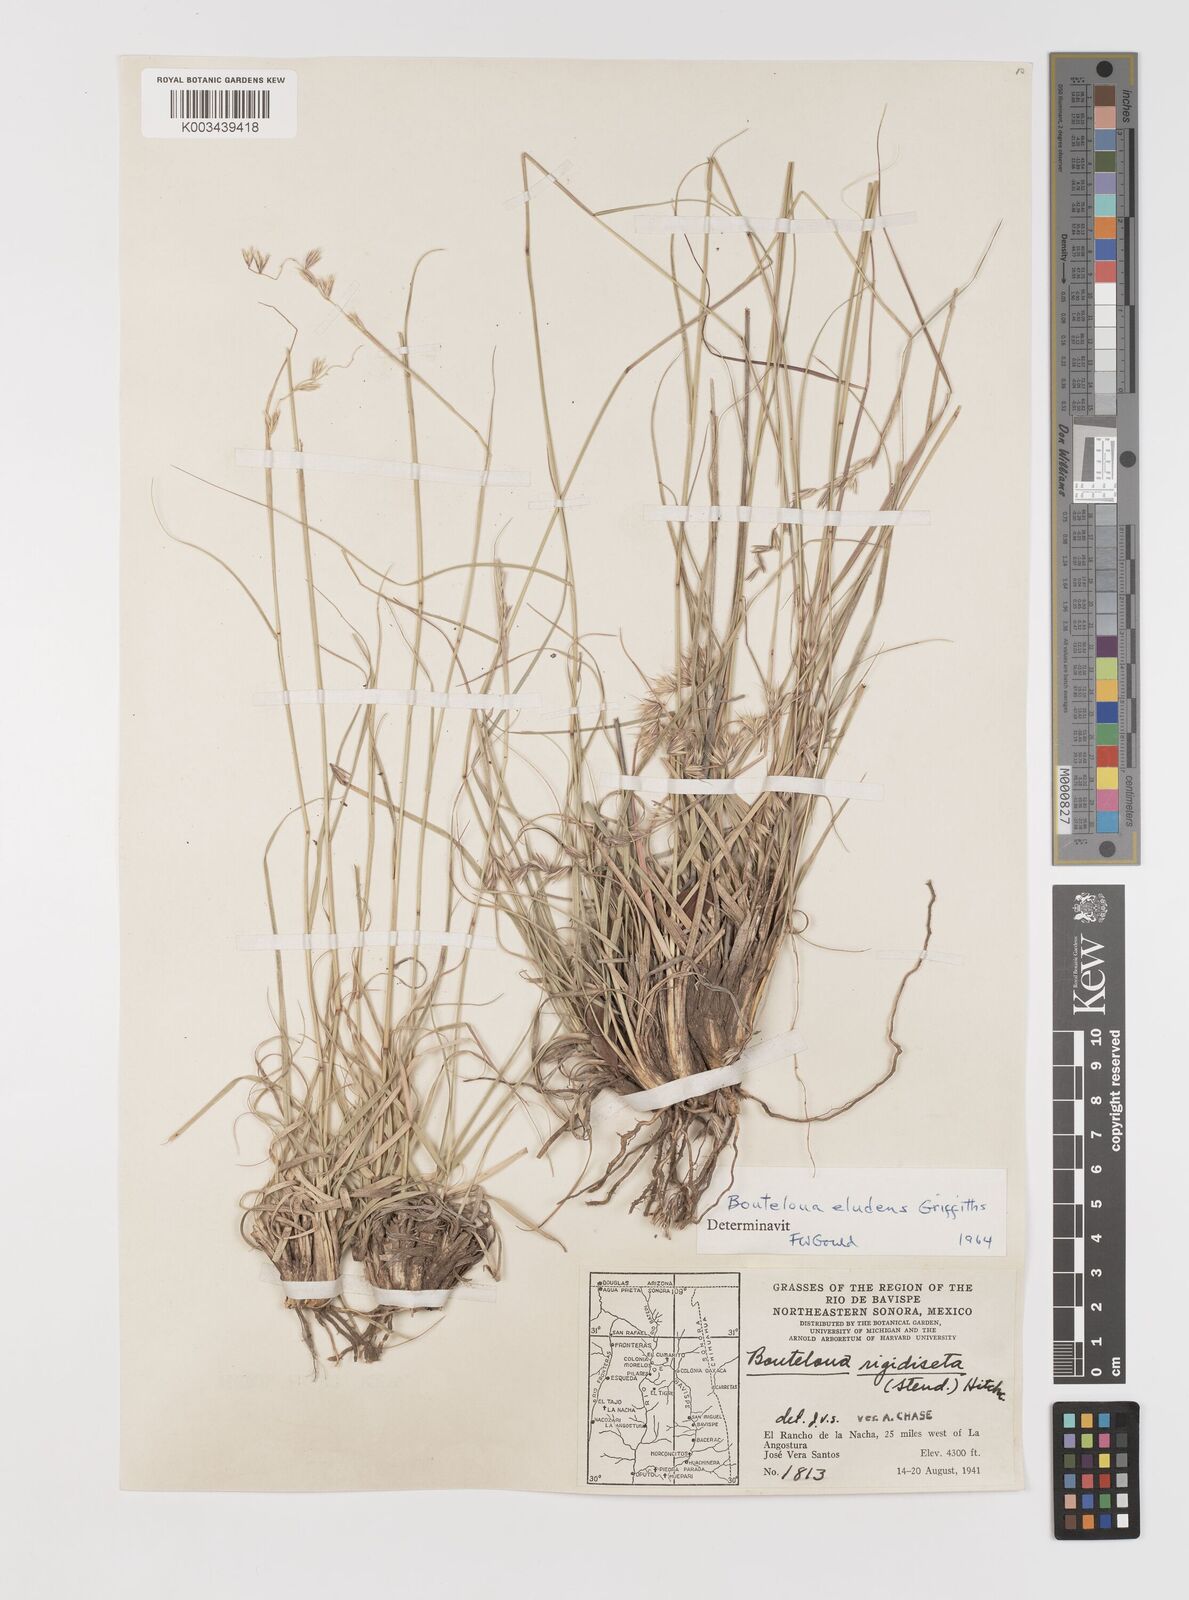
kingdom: Plantae
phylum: Tracheophyta
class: Liliopsida
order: Poales
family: Poaceae
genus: Bouteloua
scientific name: Bouteloua eludens
